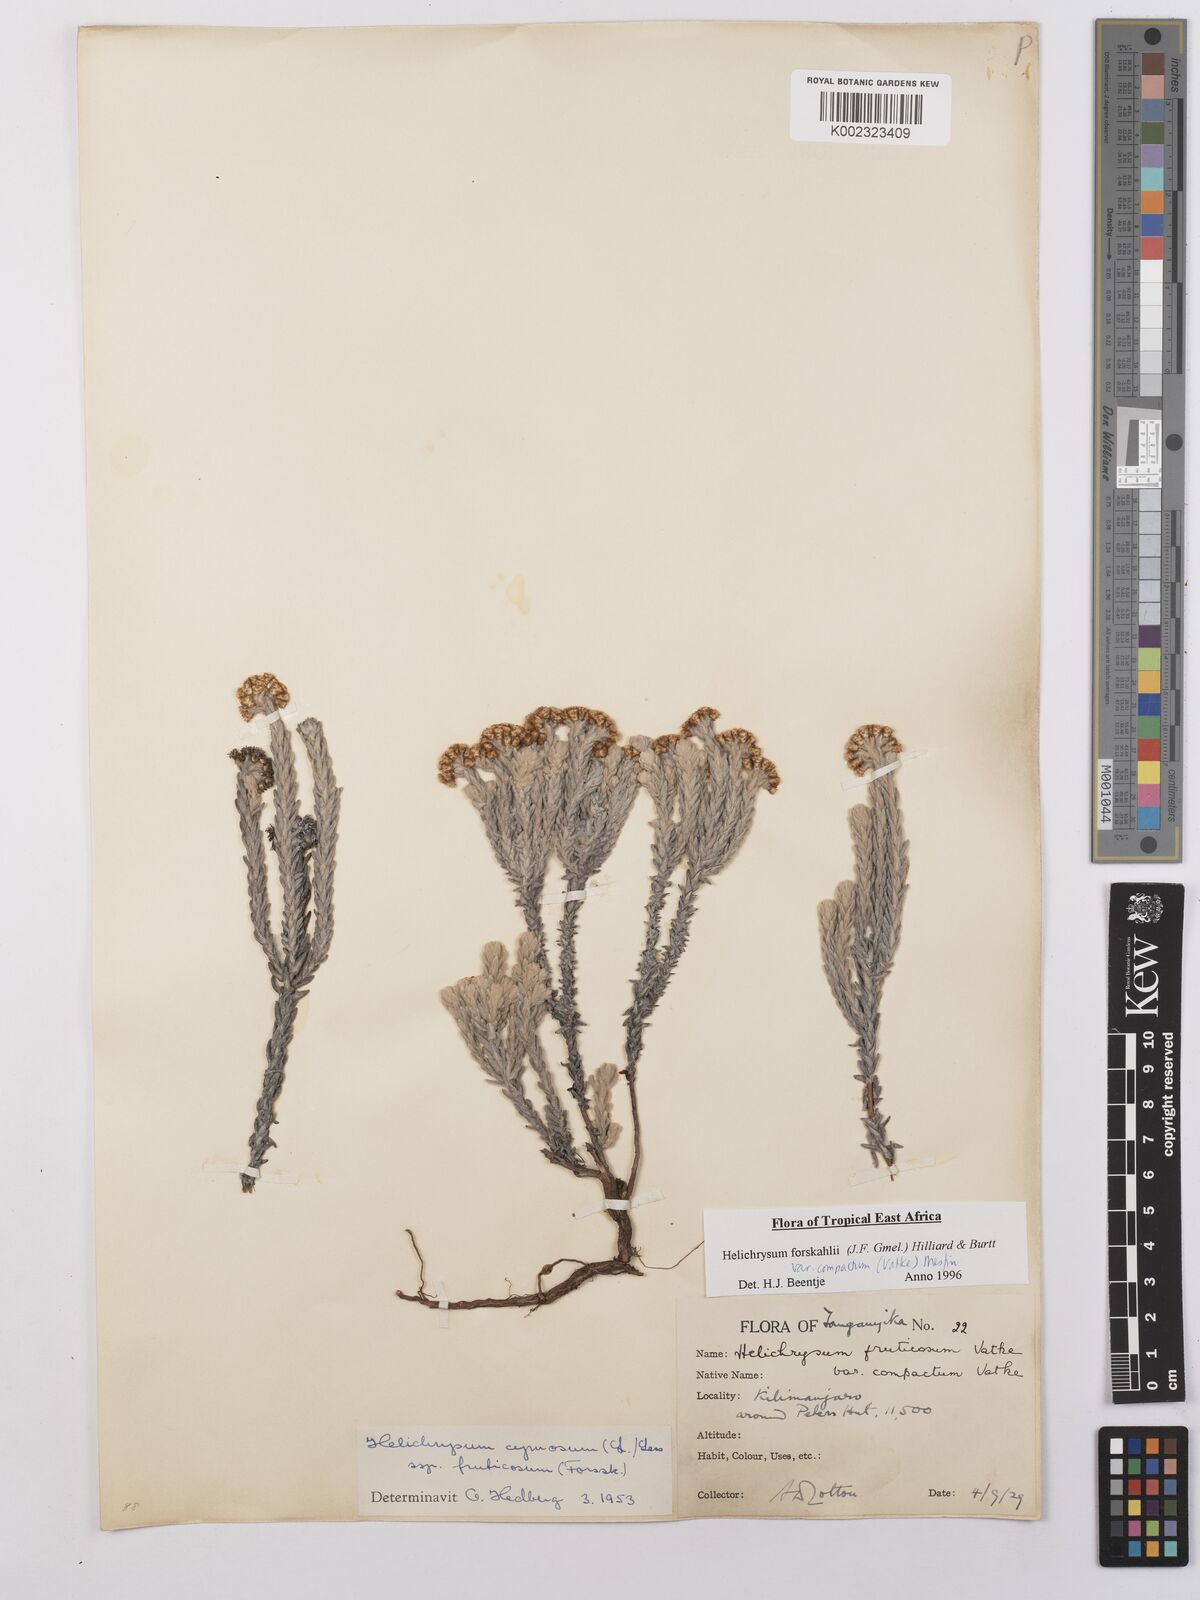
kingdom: Plantae
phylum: Tracheophyta
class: Magnoliopsida
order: Asterales
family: Asteraceae
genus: Helichrysum
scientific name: Helichrysum forskahlii
